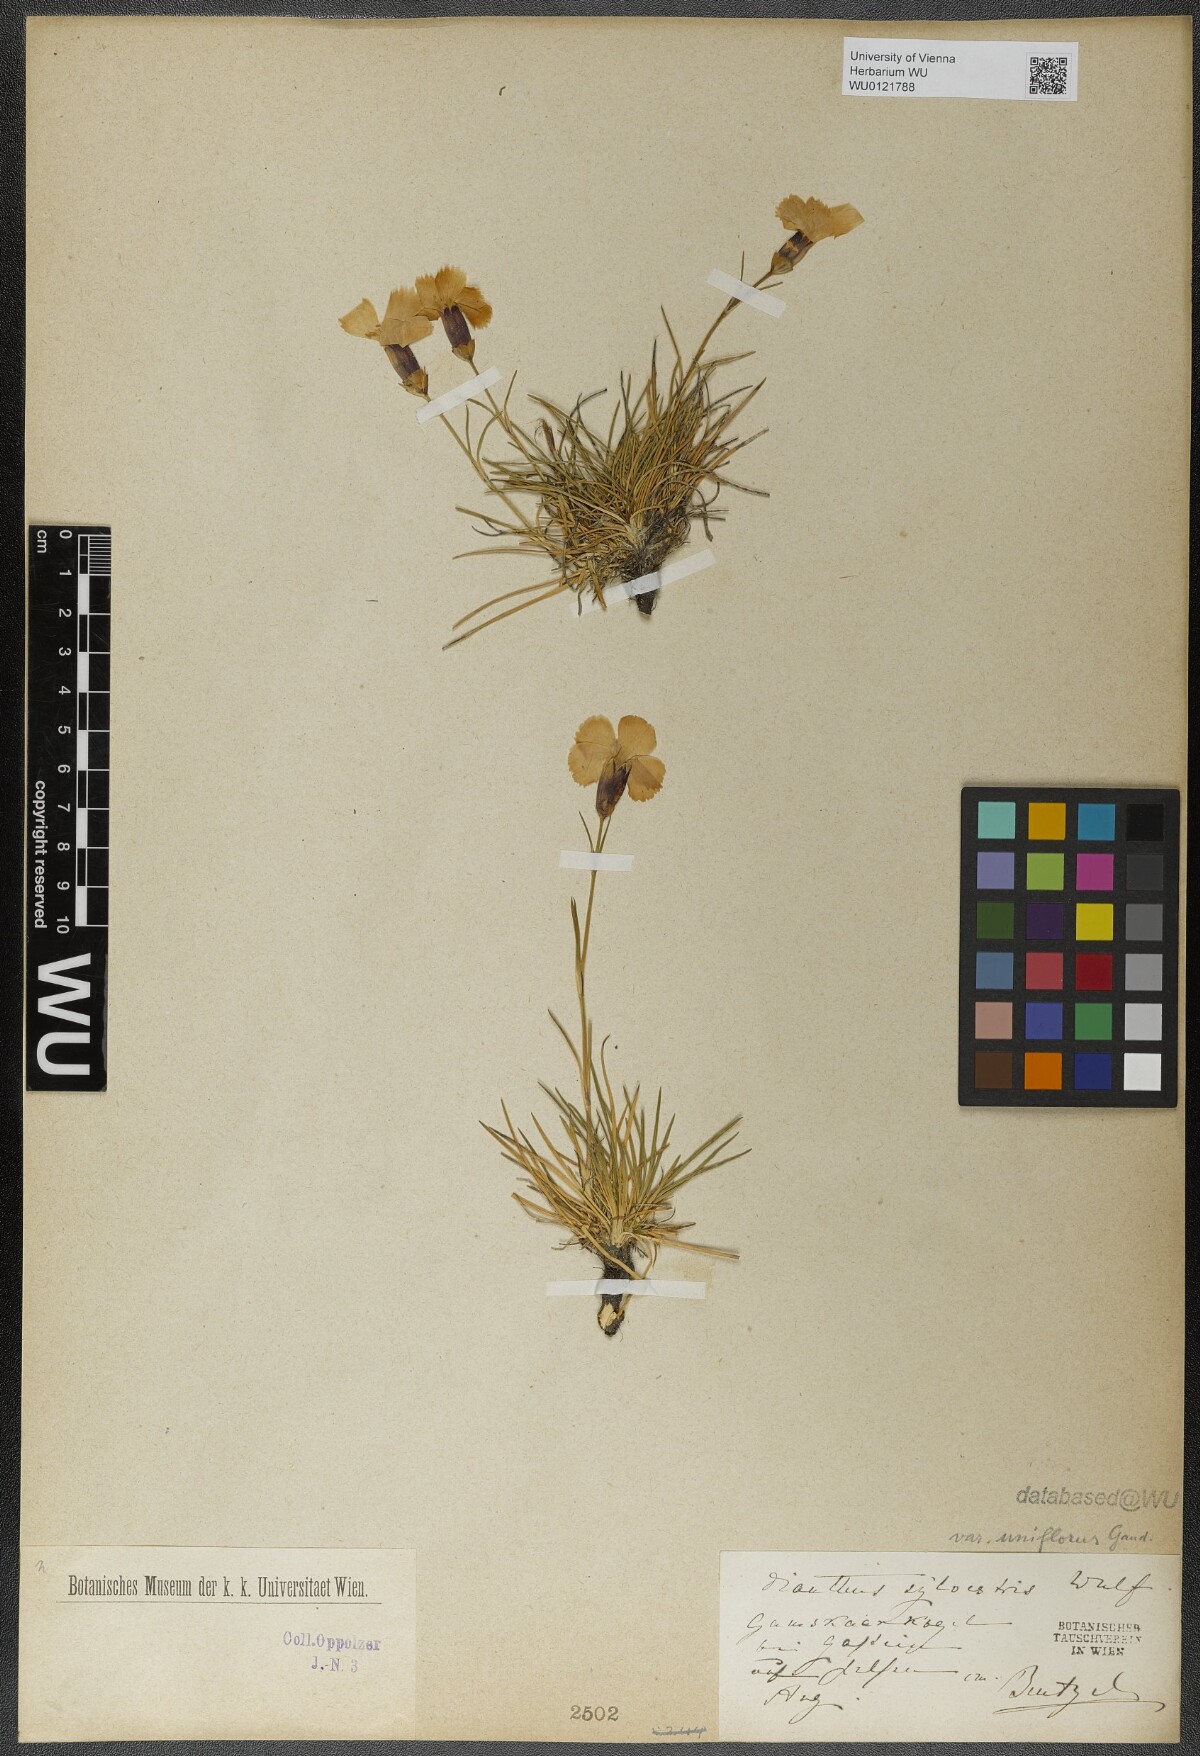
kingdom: Plantae
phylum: Tracheophyta
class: Magnoliopsida
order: Caryophyllales
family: Caryophyllaceae
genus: Dianthus
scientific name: Dianthus sylvestris
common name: Wood pink
